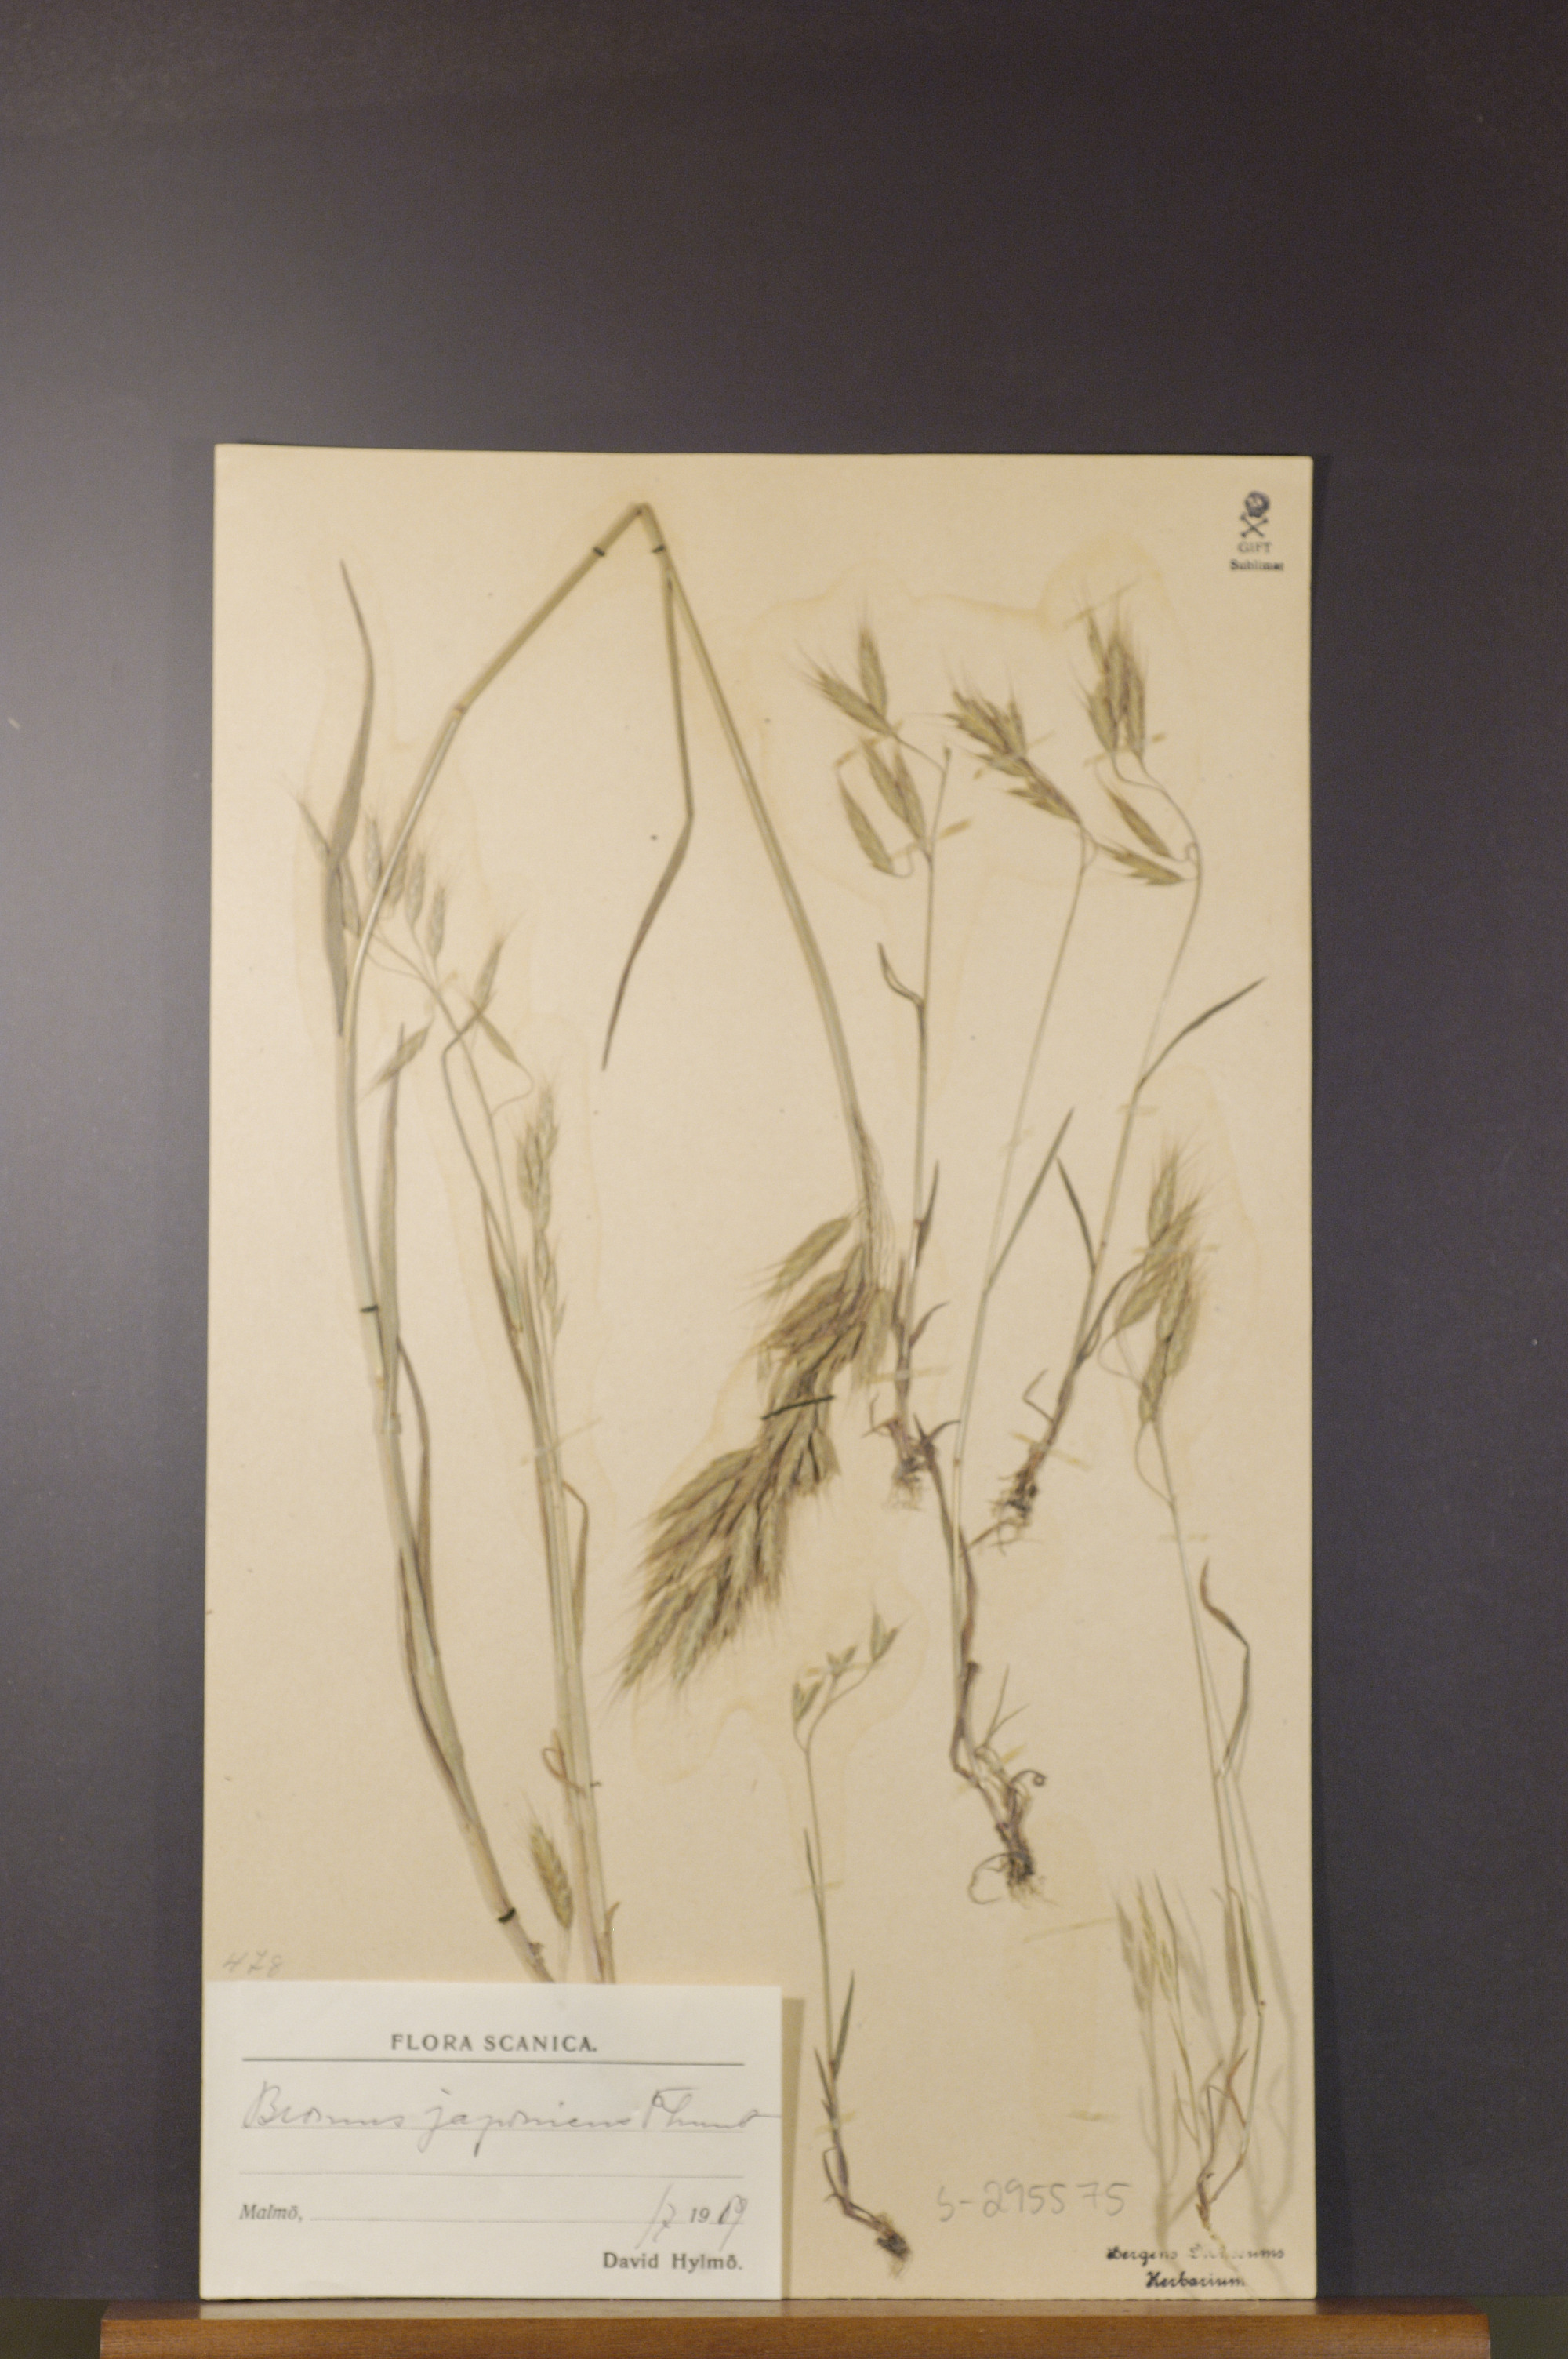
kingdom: Plantae
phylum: Tracheophyta
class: Liliopsida
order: Poales
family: Poaceae
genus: Bromus
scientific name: Bromus japonicus
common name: Japanese brome
